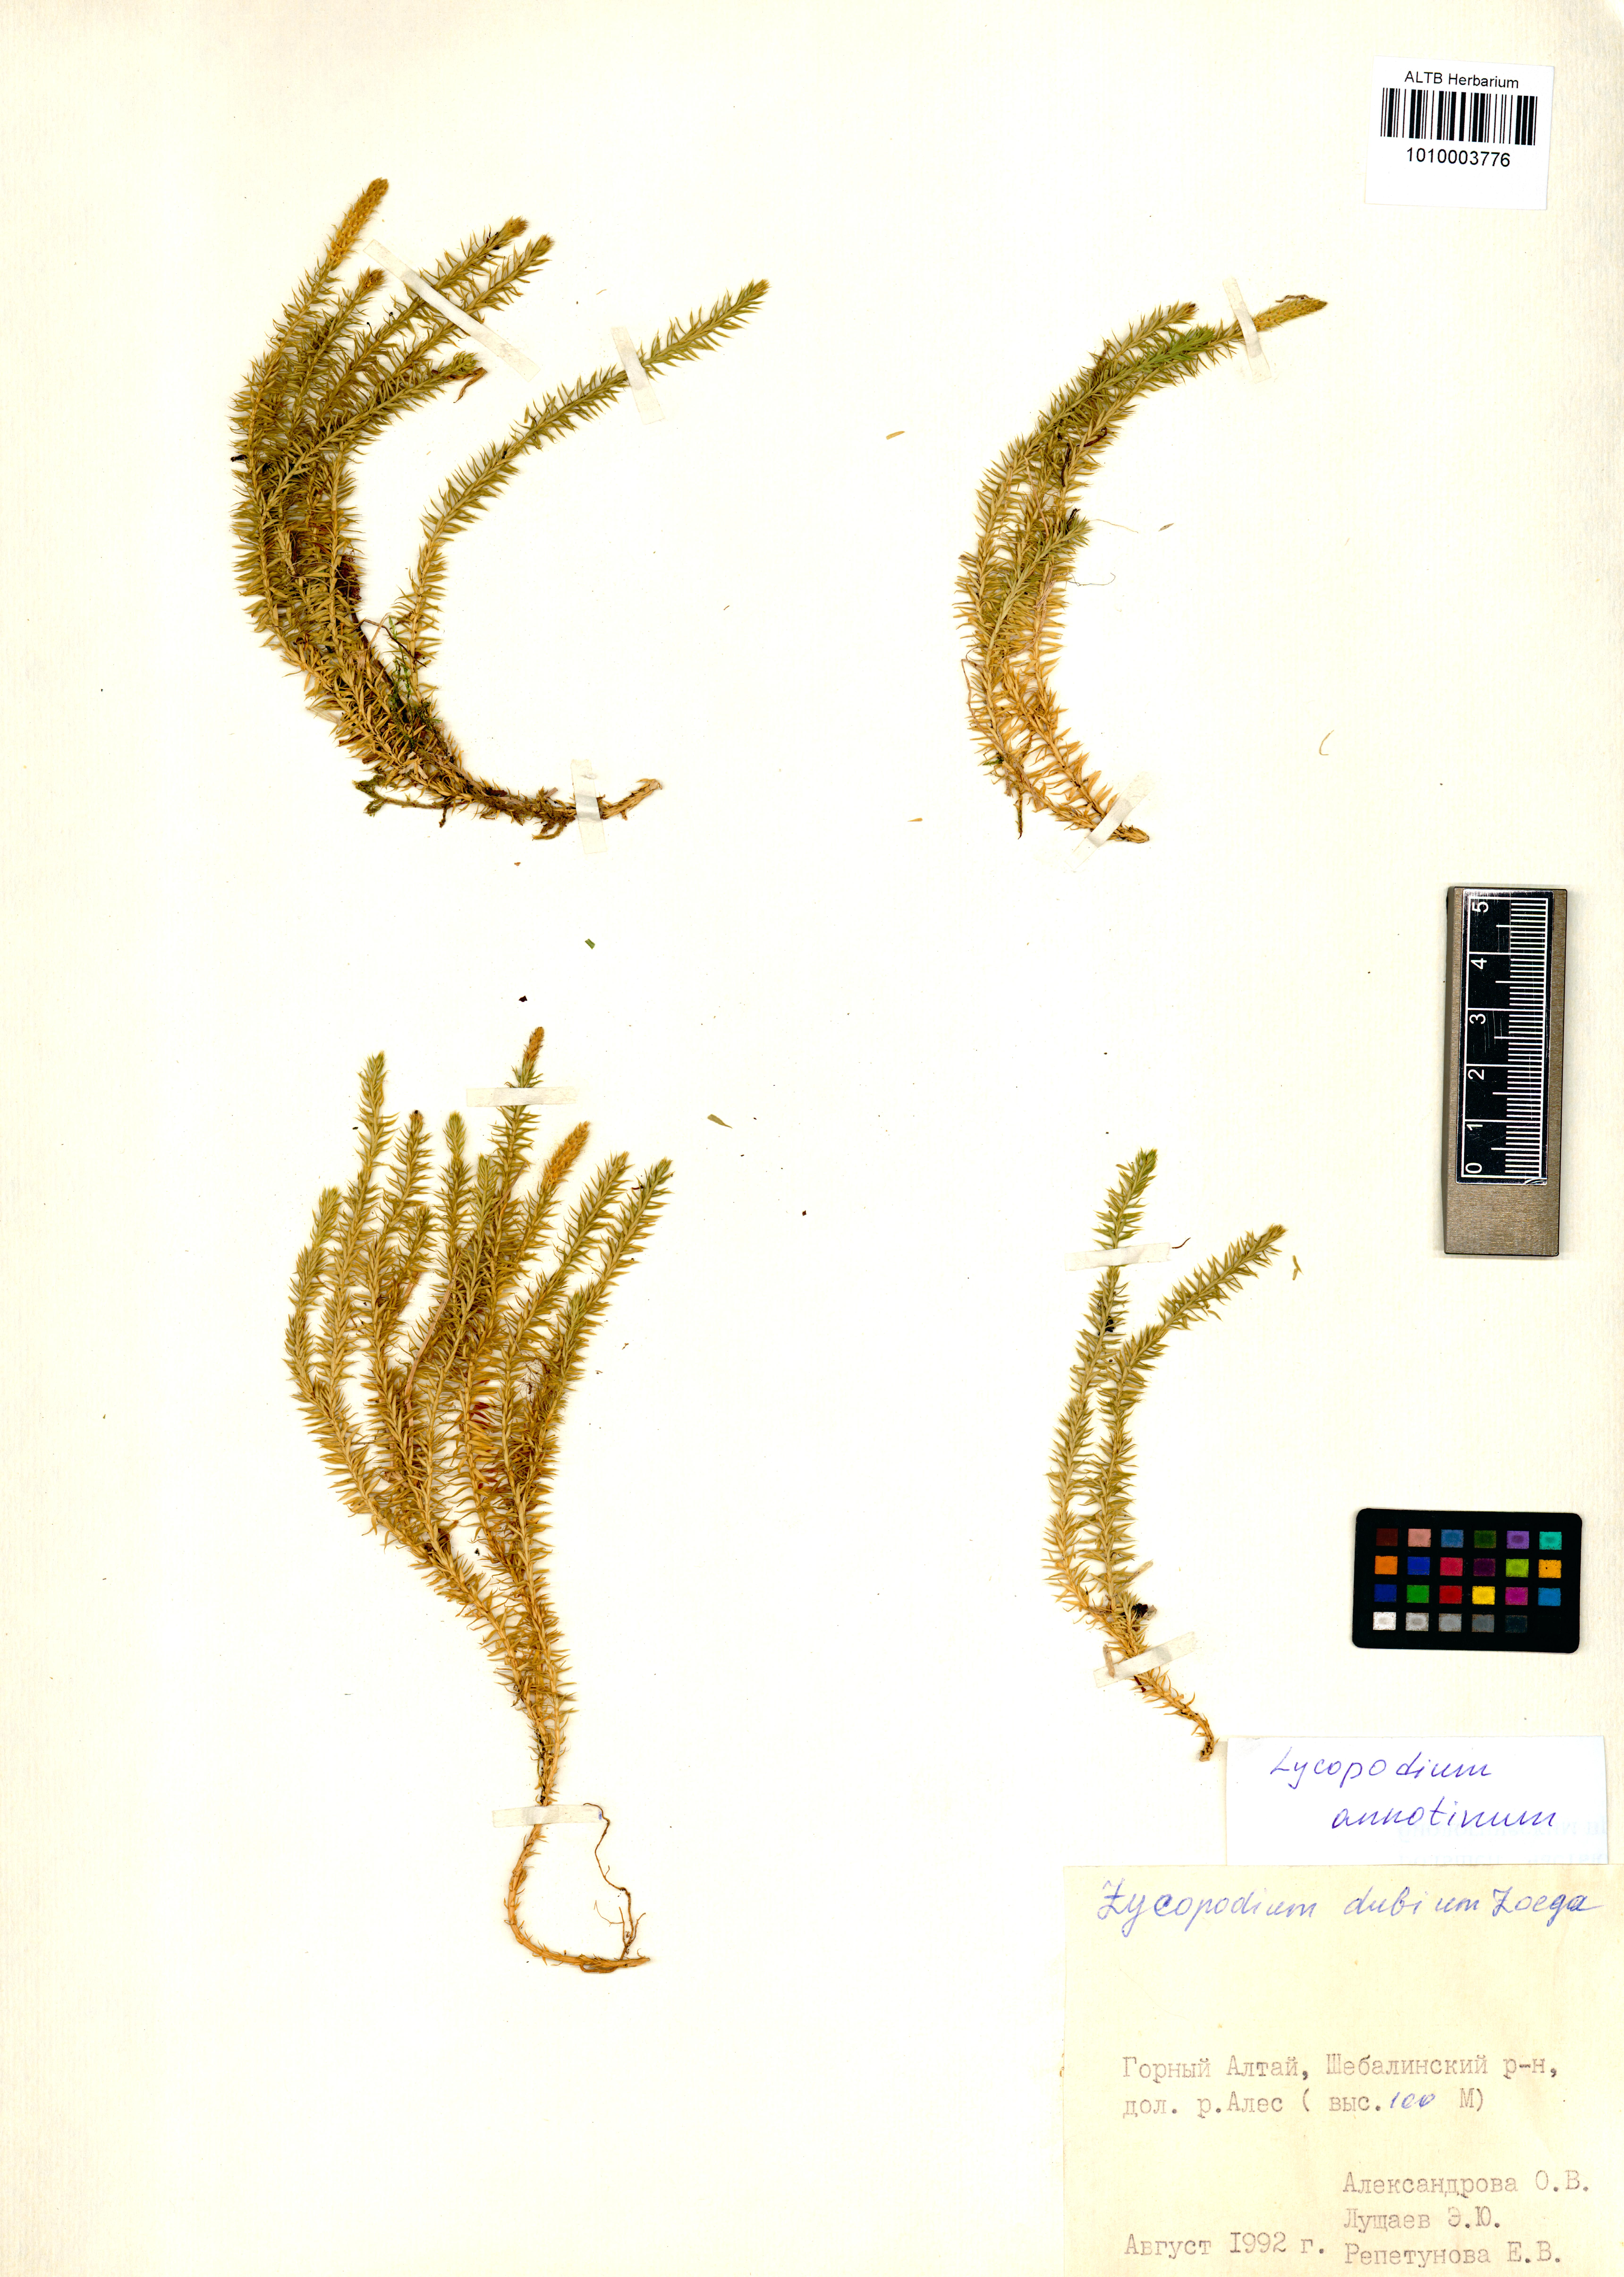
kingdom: Plantae
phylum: Tracheophyta
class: Lycopodiopsida
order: Lycopodiales
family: Lycopodiaceae
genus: Spinulum
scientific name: Spinulum annotinum
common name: Interrupted club-moss
